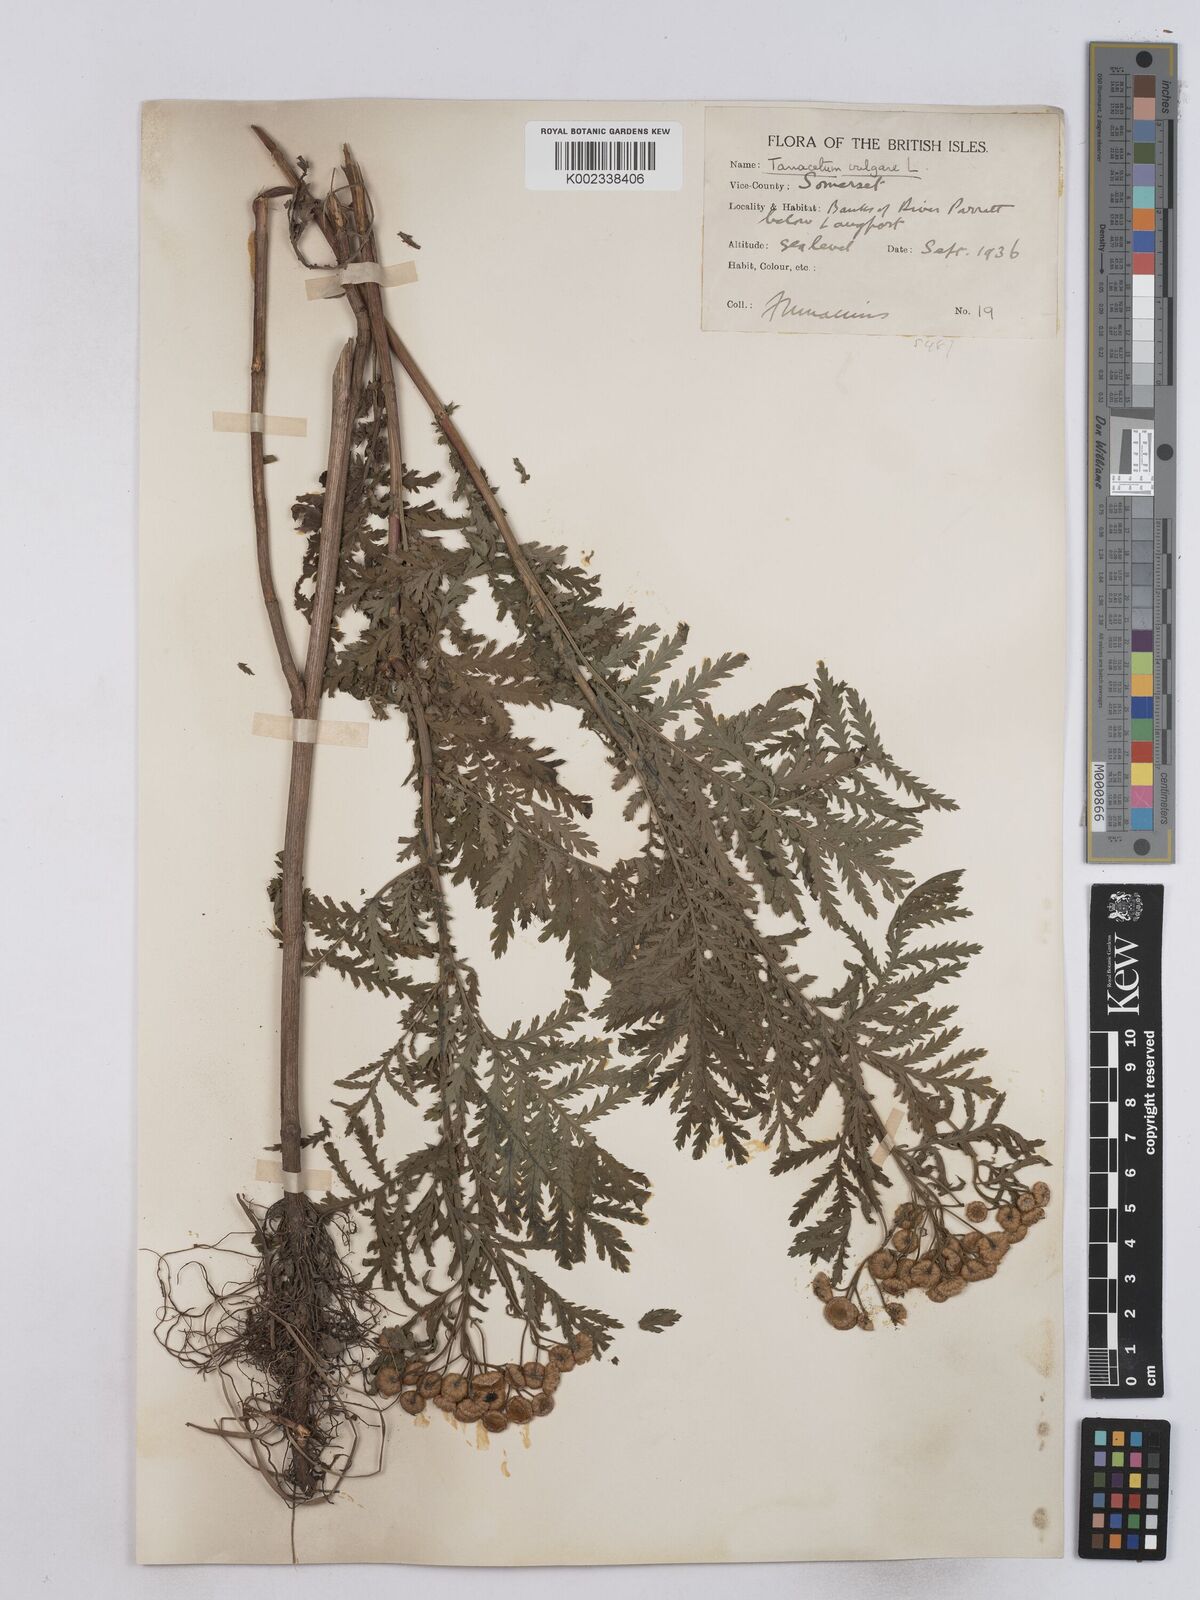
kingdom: Plantae
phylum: Tracheophyta
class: Magnoliopsida
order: Asterales
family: Asteraceae
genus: Tanacetum
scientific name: Tanacetum vulgare
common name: Common tansy
